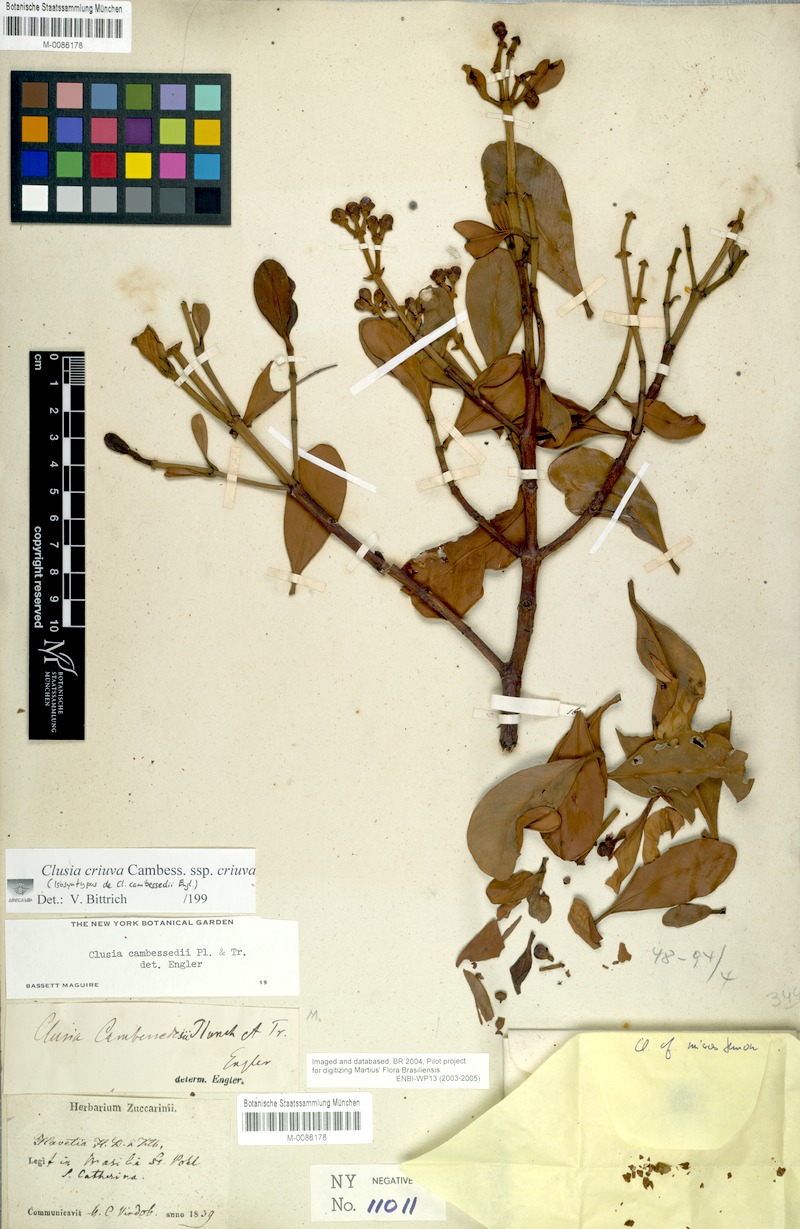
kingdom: Plantae
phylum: Tracheophyta
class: Magnoliopsida
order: Malpighiales
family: Clusiaceae
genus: Clusia
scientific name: Clusia criuva
